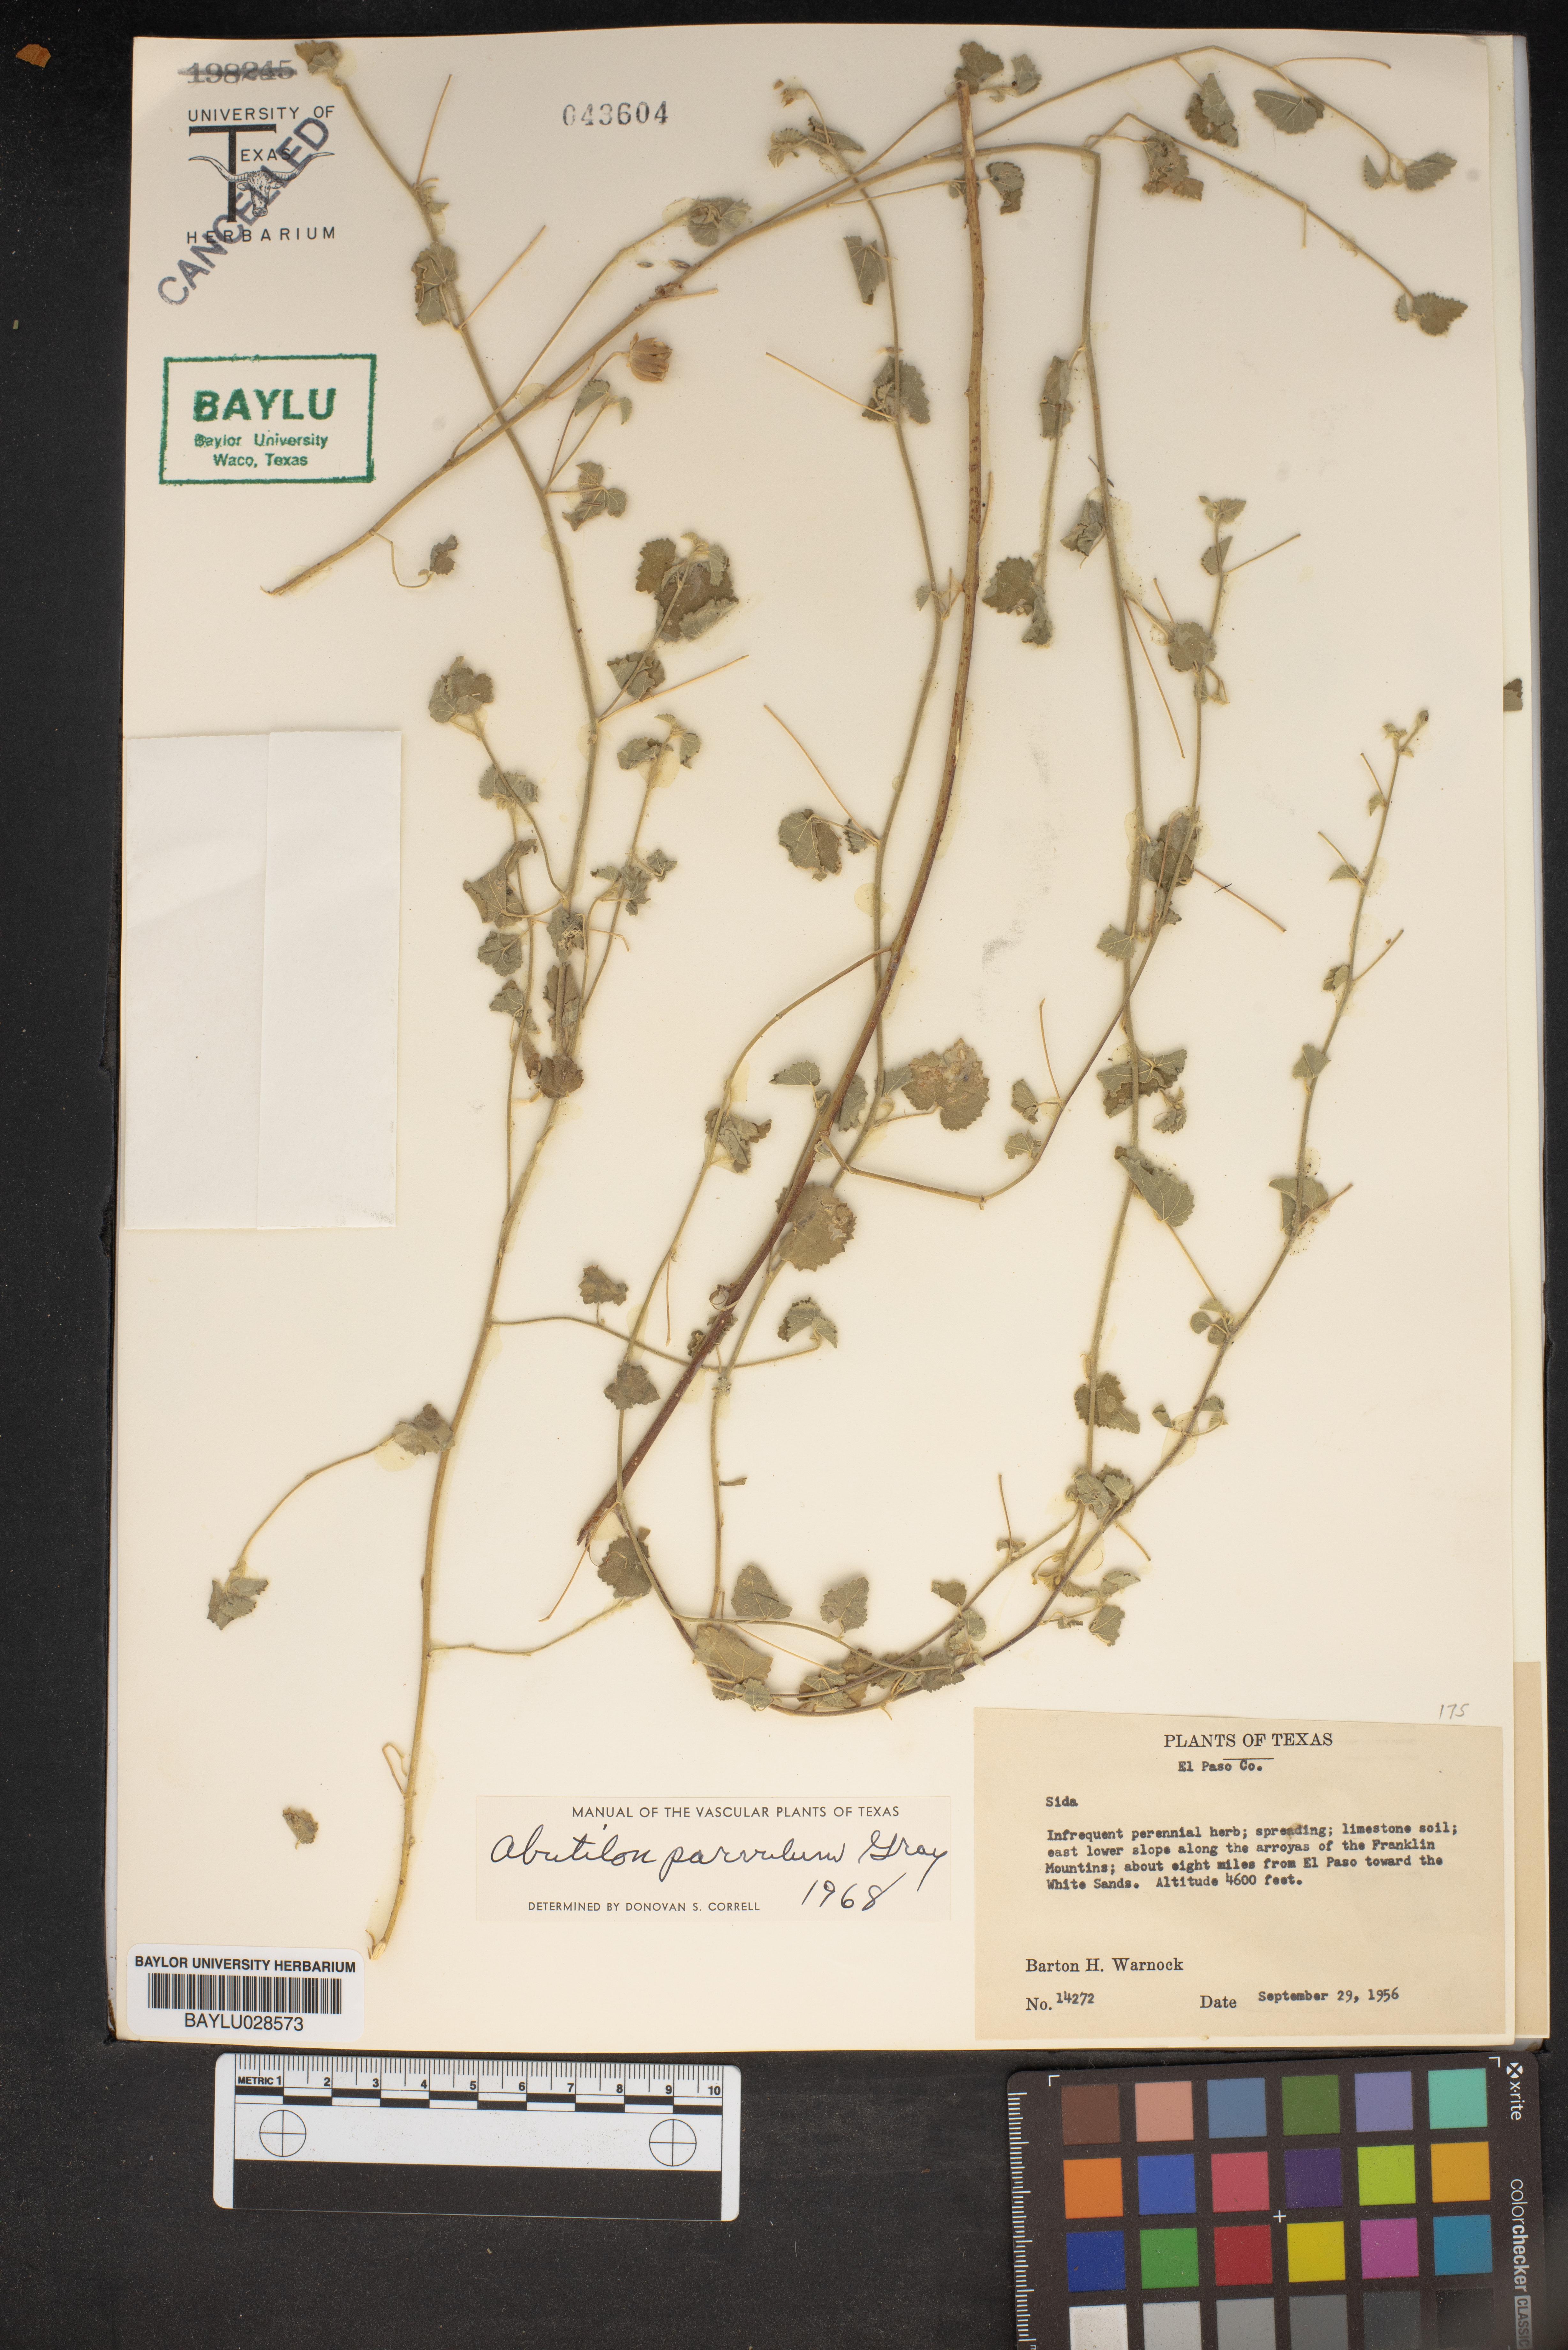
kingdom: Plantae
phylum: Tracheophyta
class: Magnoliopsida
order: Malvales
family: Malvaceae
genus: Abutilon
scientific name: Abutilon parvulum
